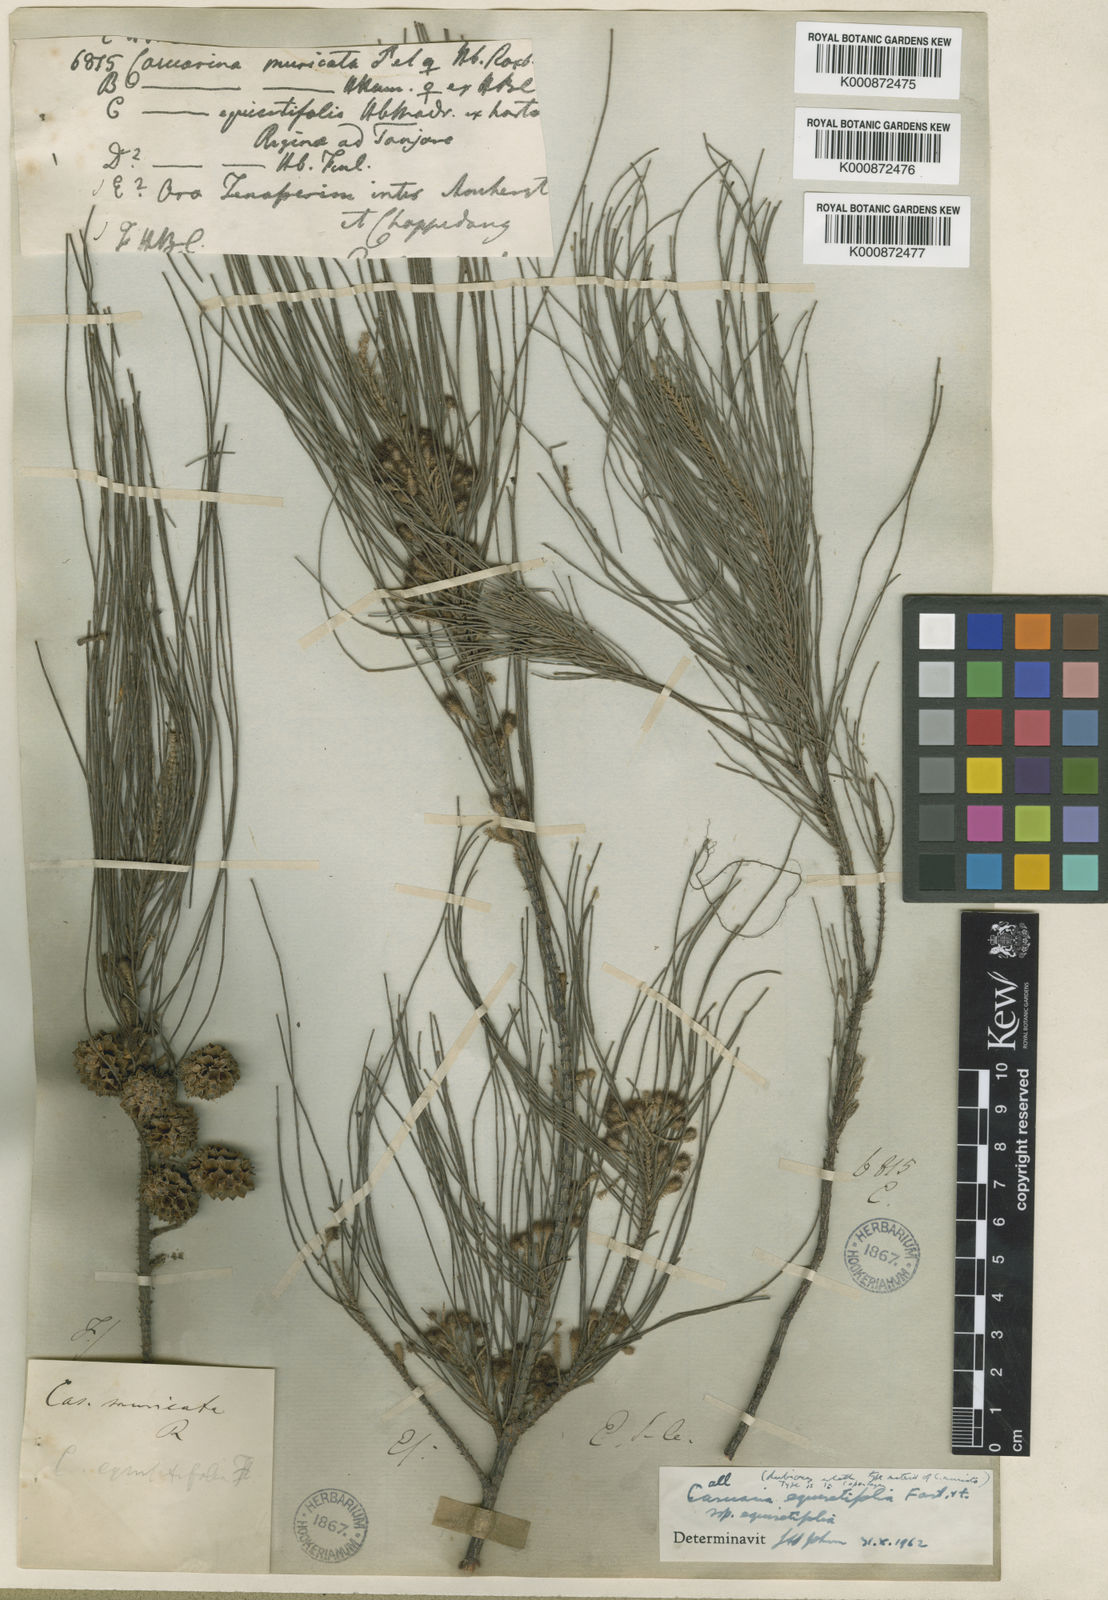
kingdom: Plantae
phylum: Tracheophyta
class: Magnoliopsida
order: Fagales
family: Casuarinaceae
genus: Casuarina
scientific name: Casuarina
